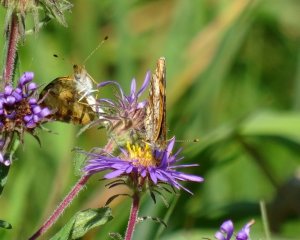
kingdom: Animalia
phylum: Arthropoda
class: Insecta
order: Lepidoptera
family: Nymphalidae
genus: Phyciodes
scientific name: Phyciodes tharos
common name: Pearl Crescent
